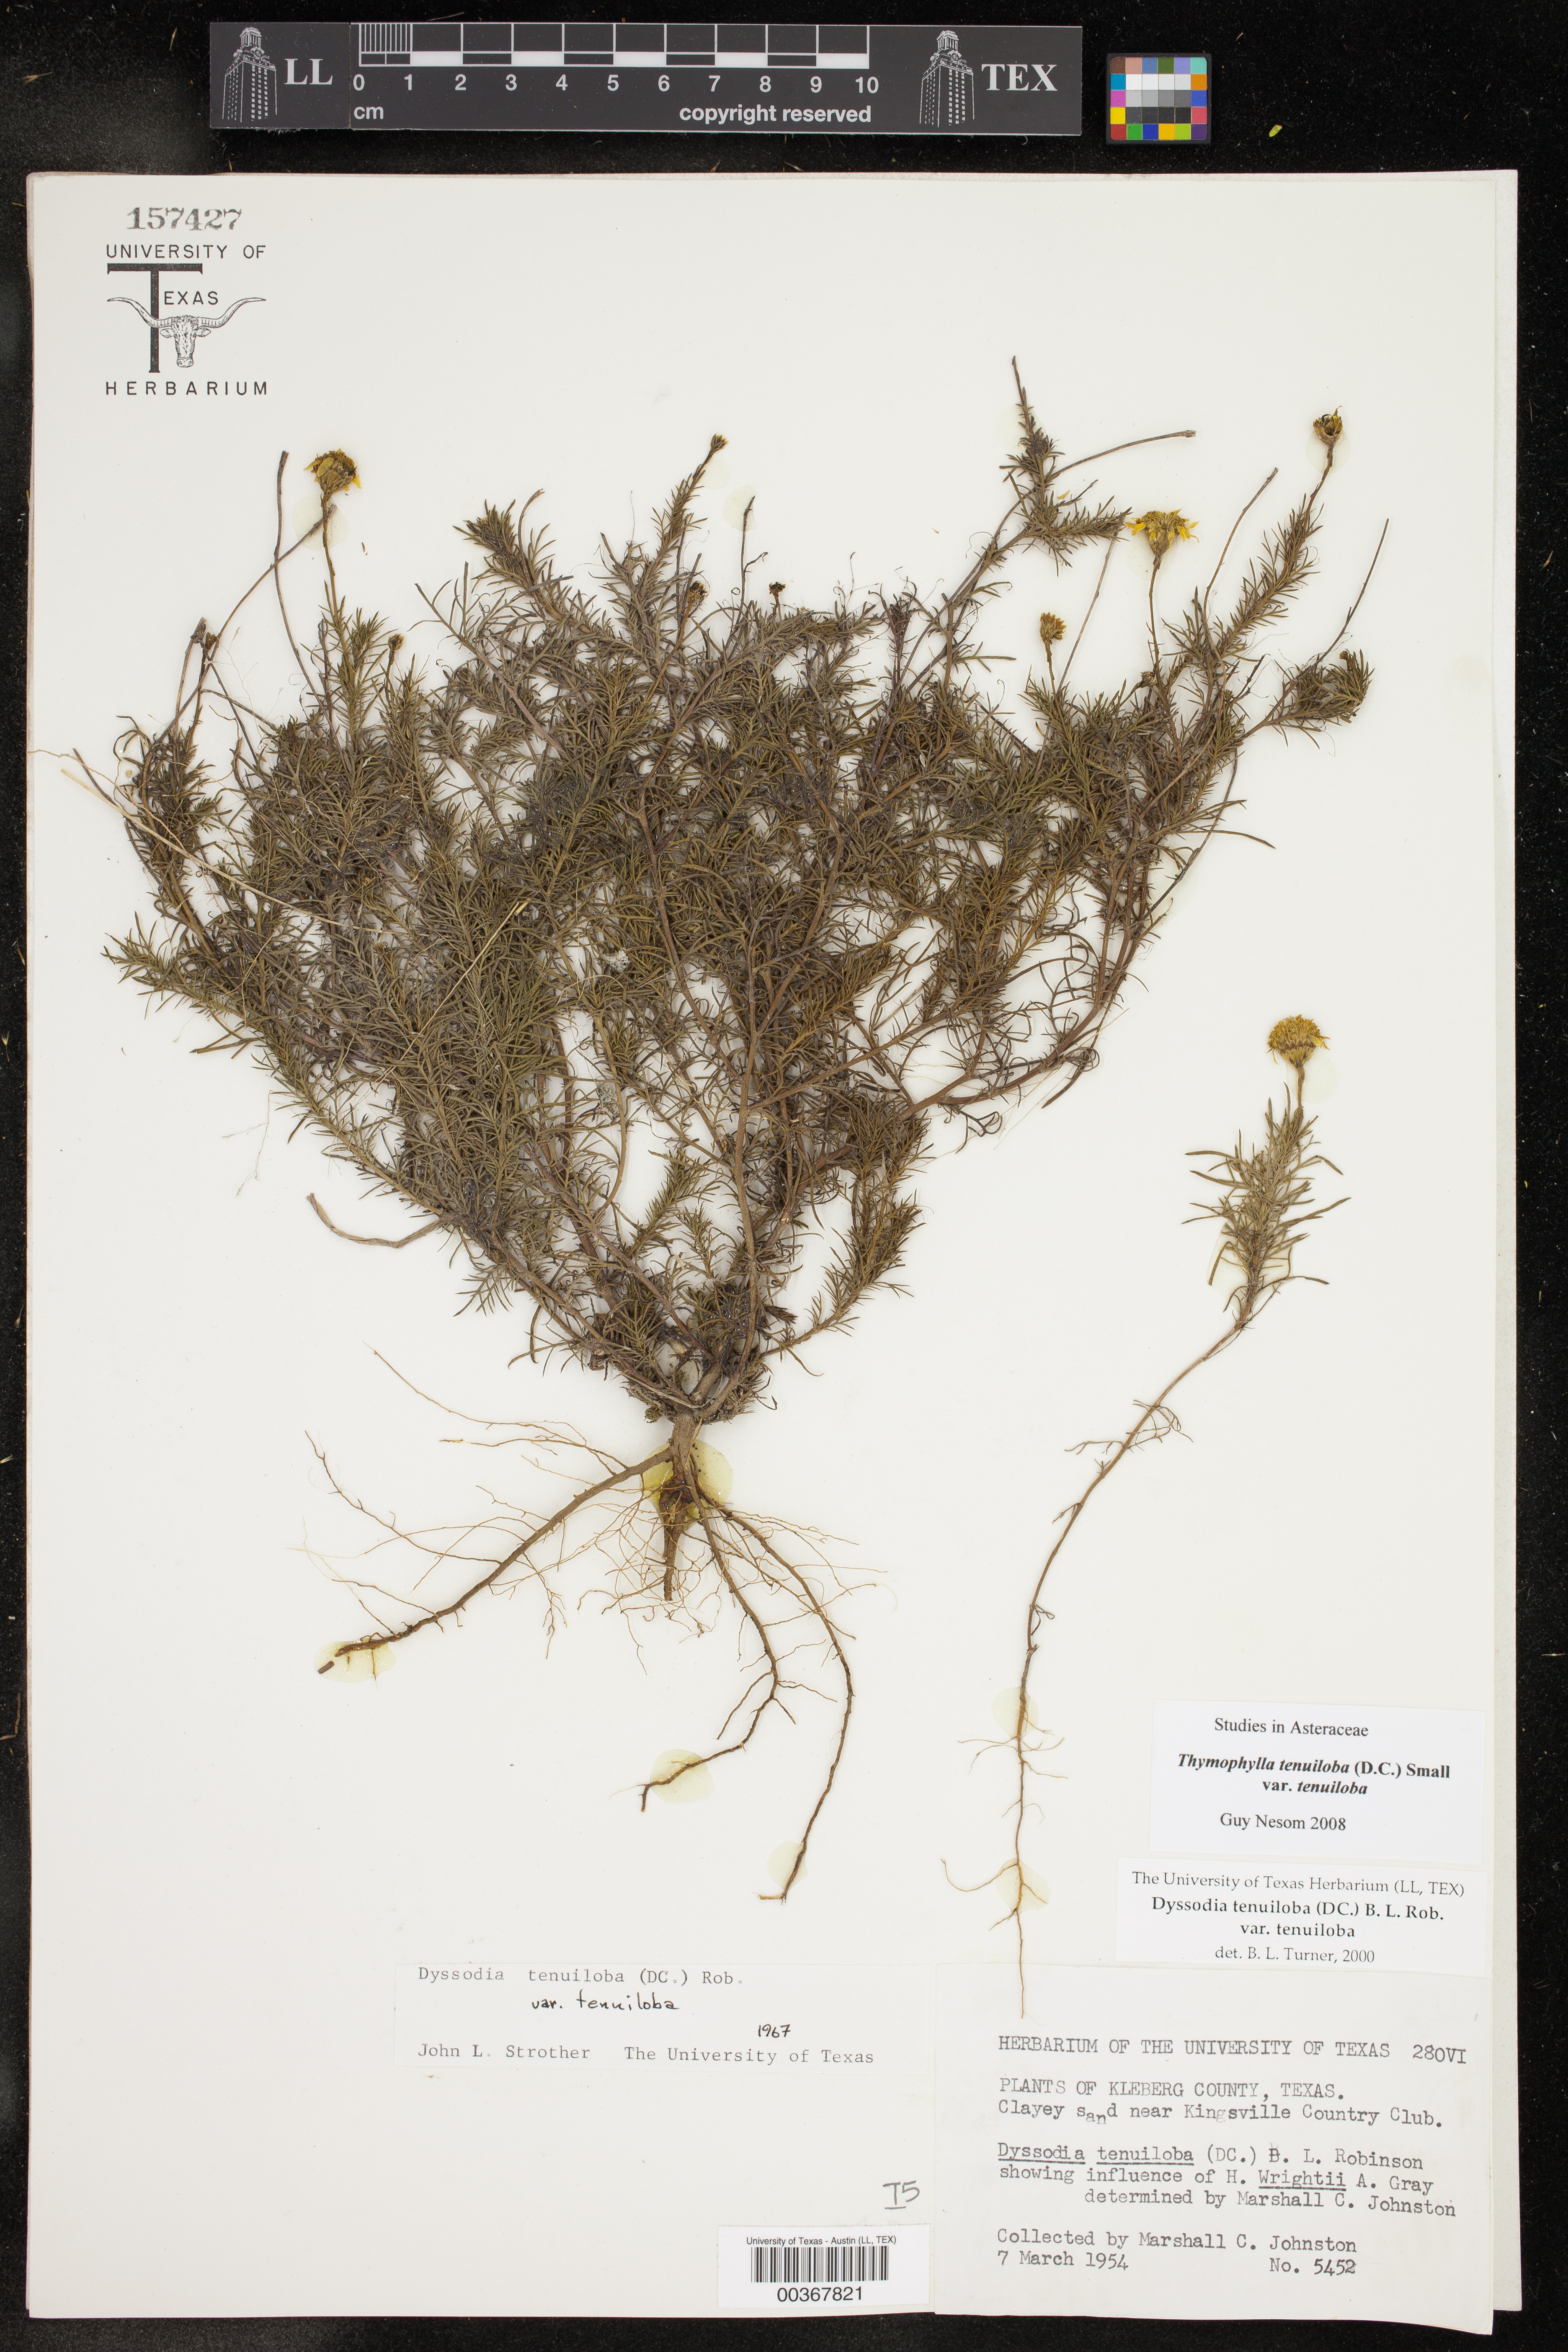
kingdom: Plantae
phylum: Tracheophyta
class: Magnoliopsida
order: Asterales
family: Asteraceae
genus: Thymophylla
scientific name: Thymophylla tenuiloba
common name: Dahlberg's daisy
